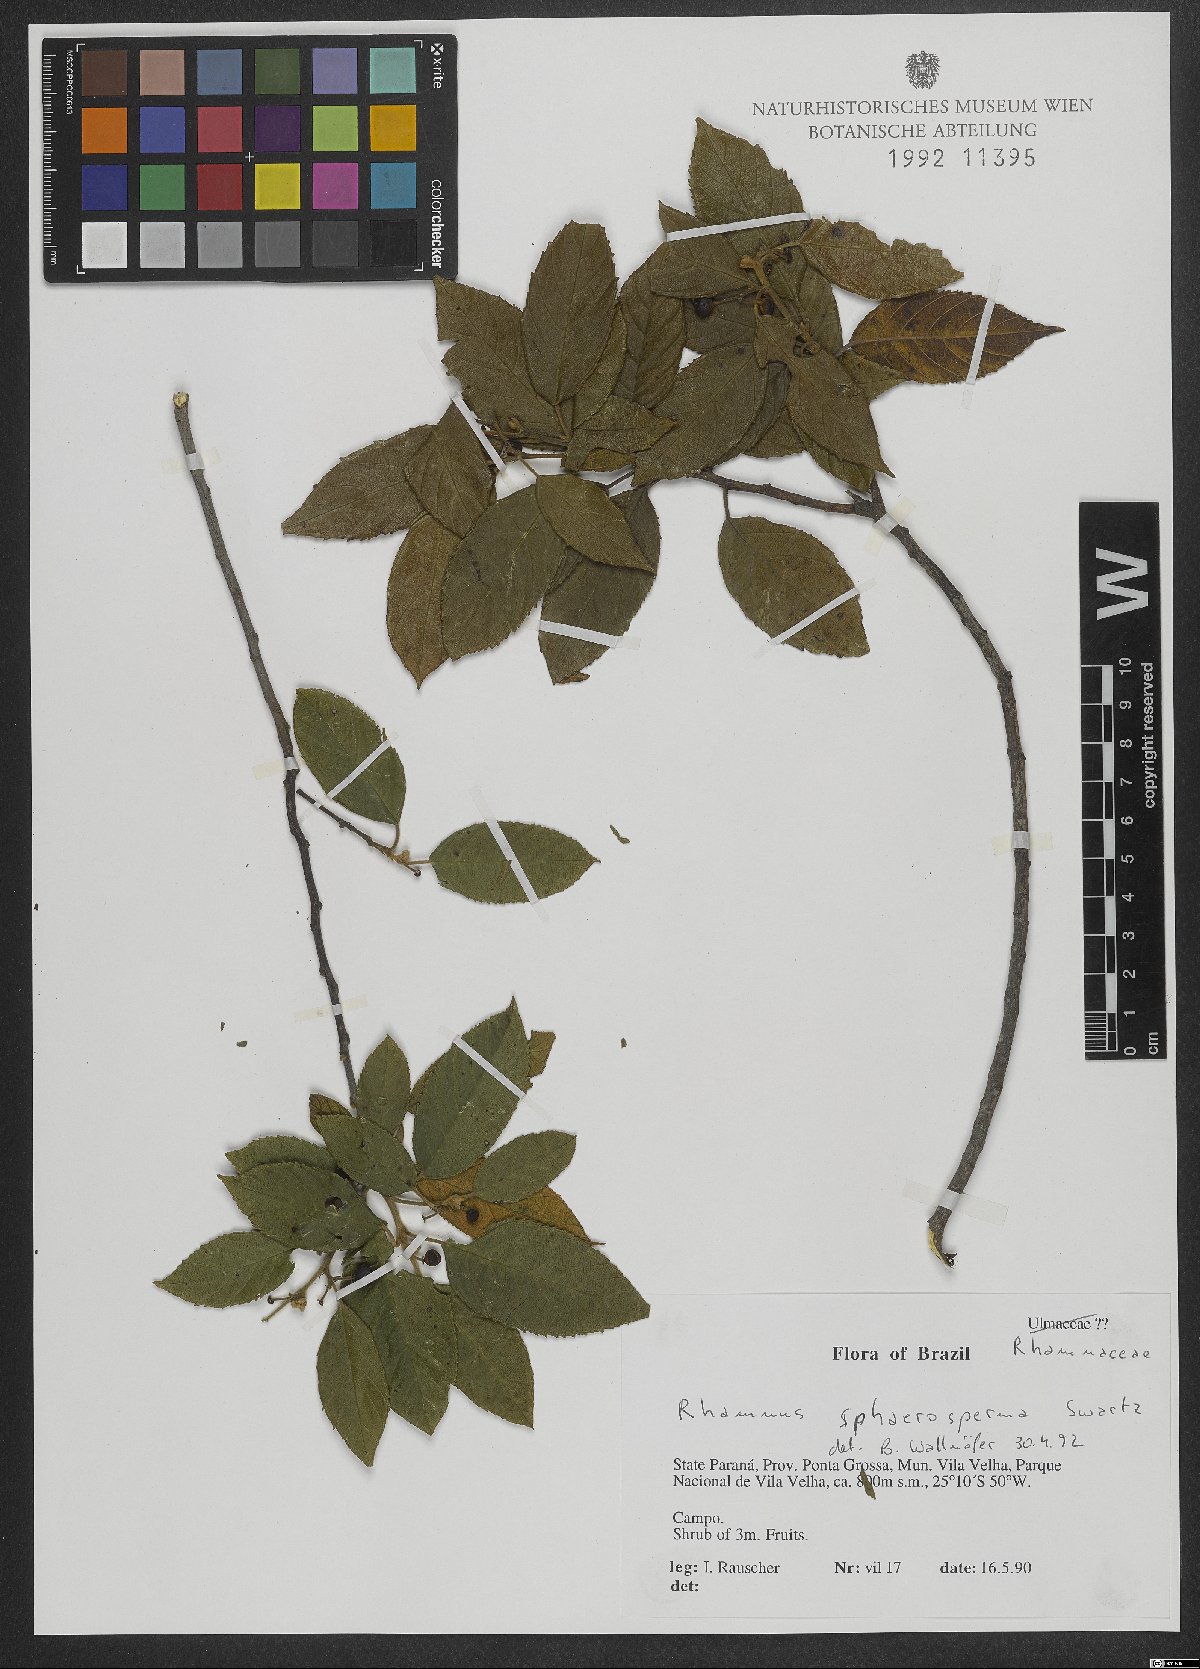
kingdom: Plantae
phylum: Tracheophyta
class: Magnoliopsida
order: Rosales
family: Rhamnaceae
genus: Frangula
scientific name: Frangula sphaerosperma
